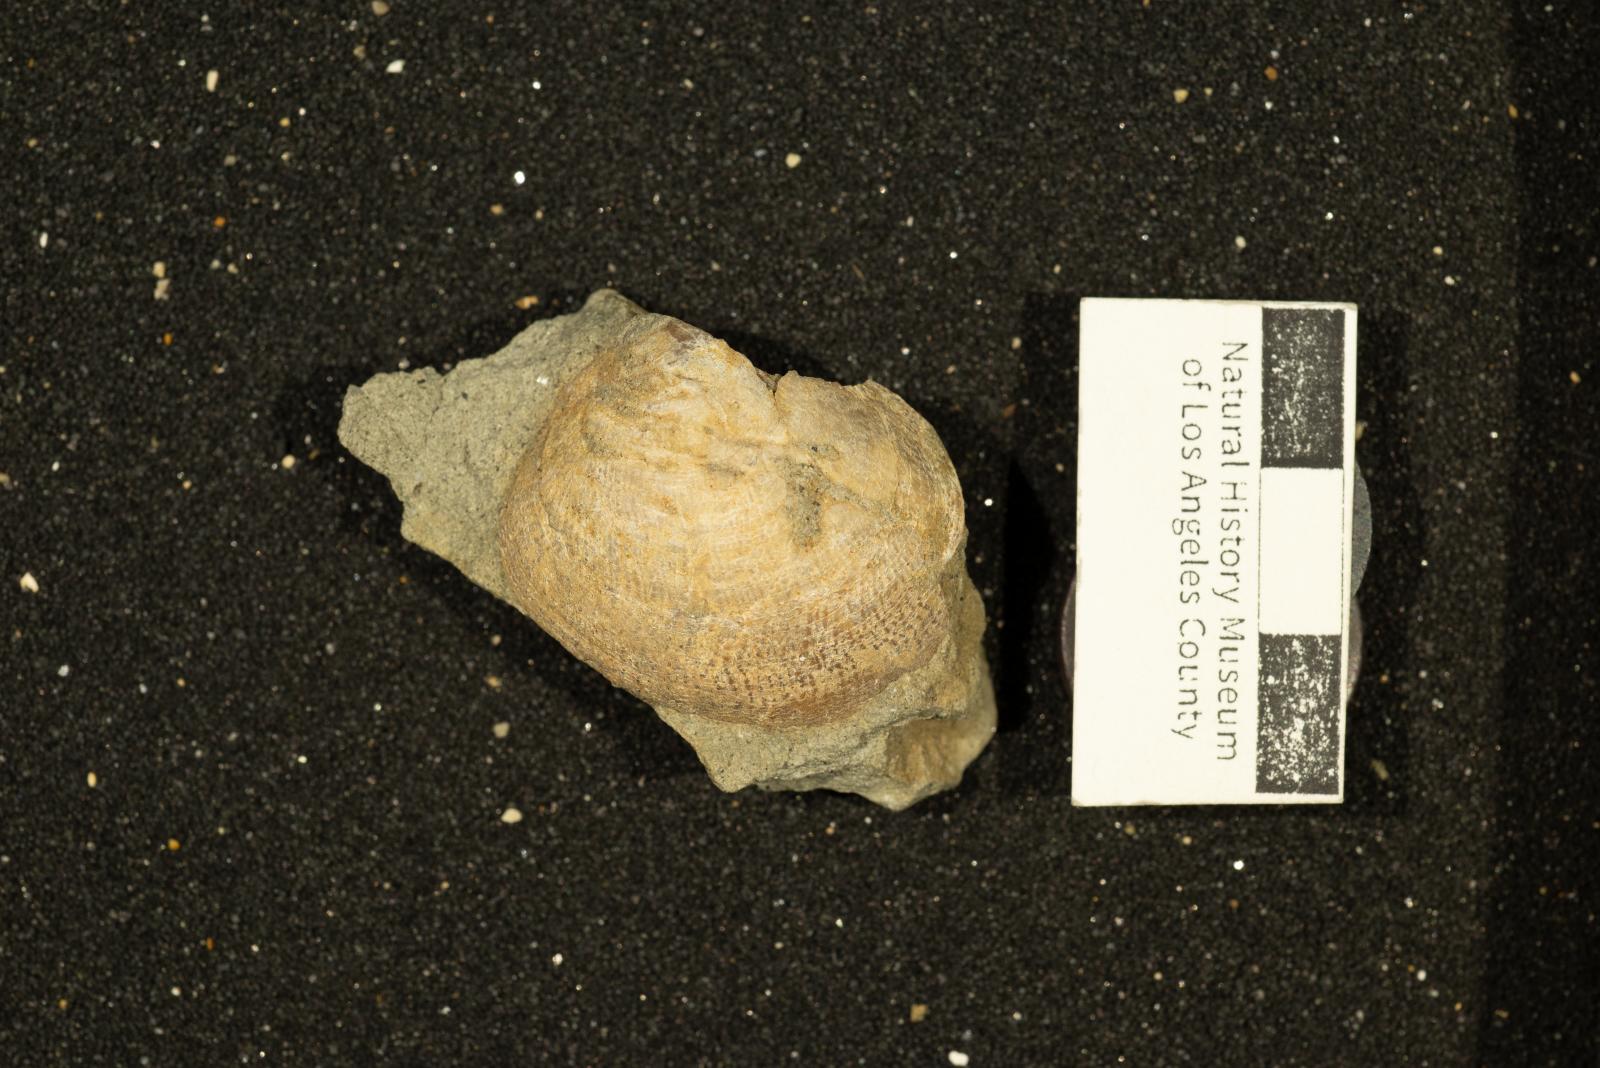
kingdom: Animalia
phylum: Mollusca
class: Bivalvia
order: Pectinida
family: Anomiidae
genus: Anomia
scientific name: Anomia jalama
